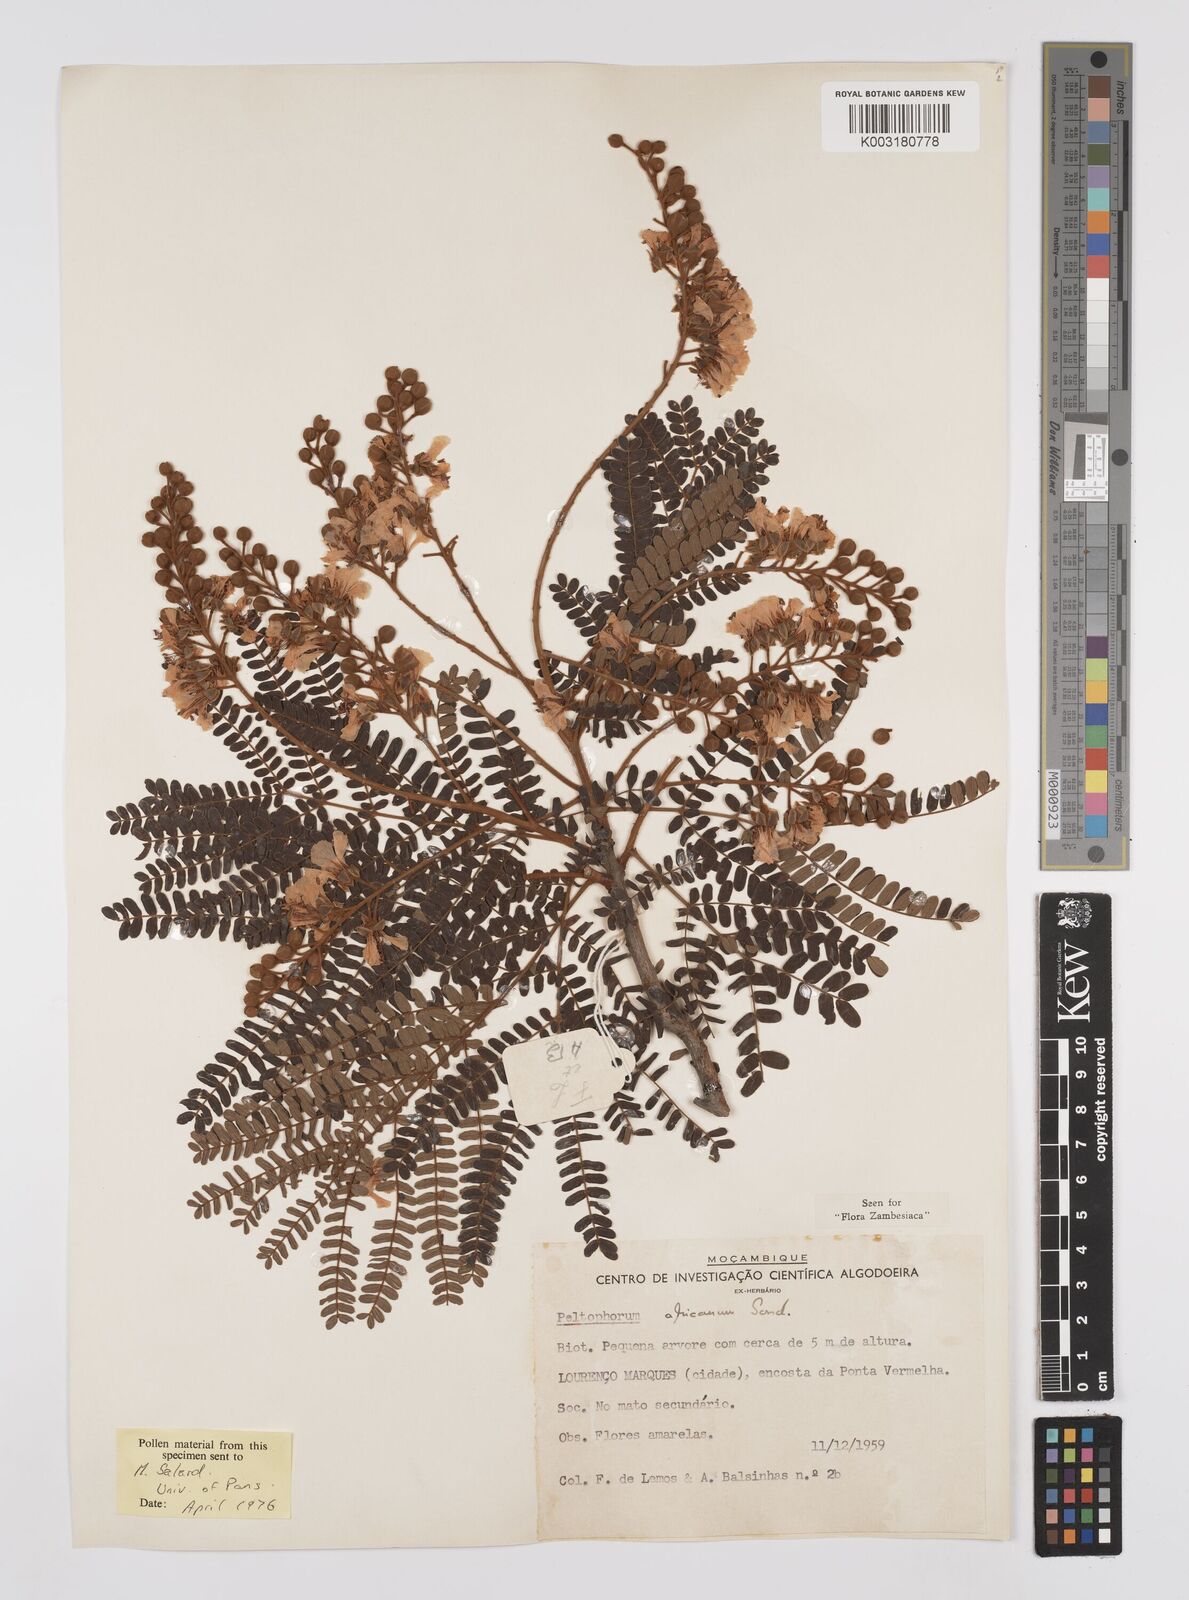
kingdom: Plantae
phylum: Tracheophyta
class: Magnoliopsida
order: Fabales
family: Fabaceae
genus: Peltophorum
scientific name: Peltophorum africanum
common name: African black wattle
